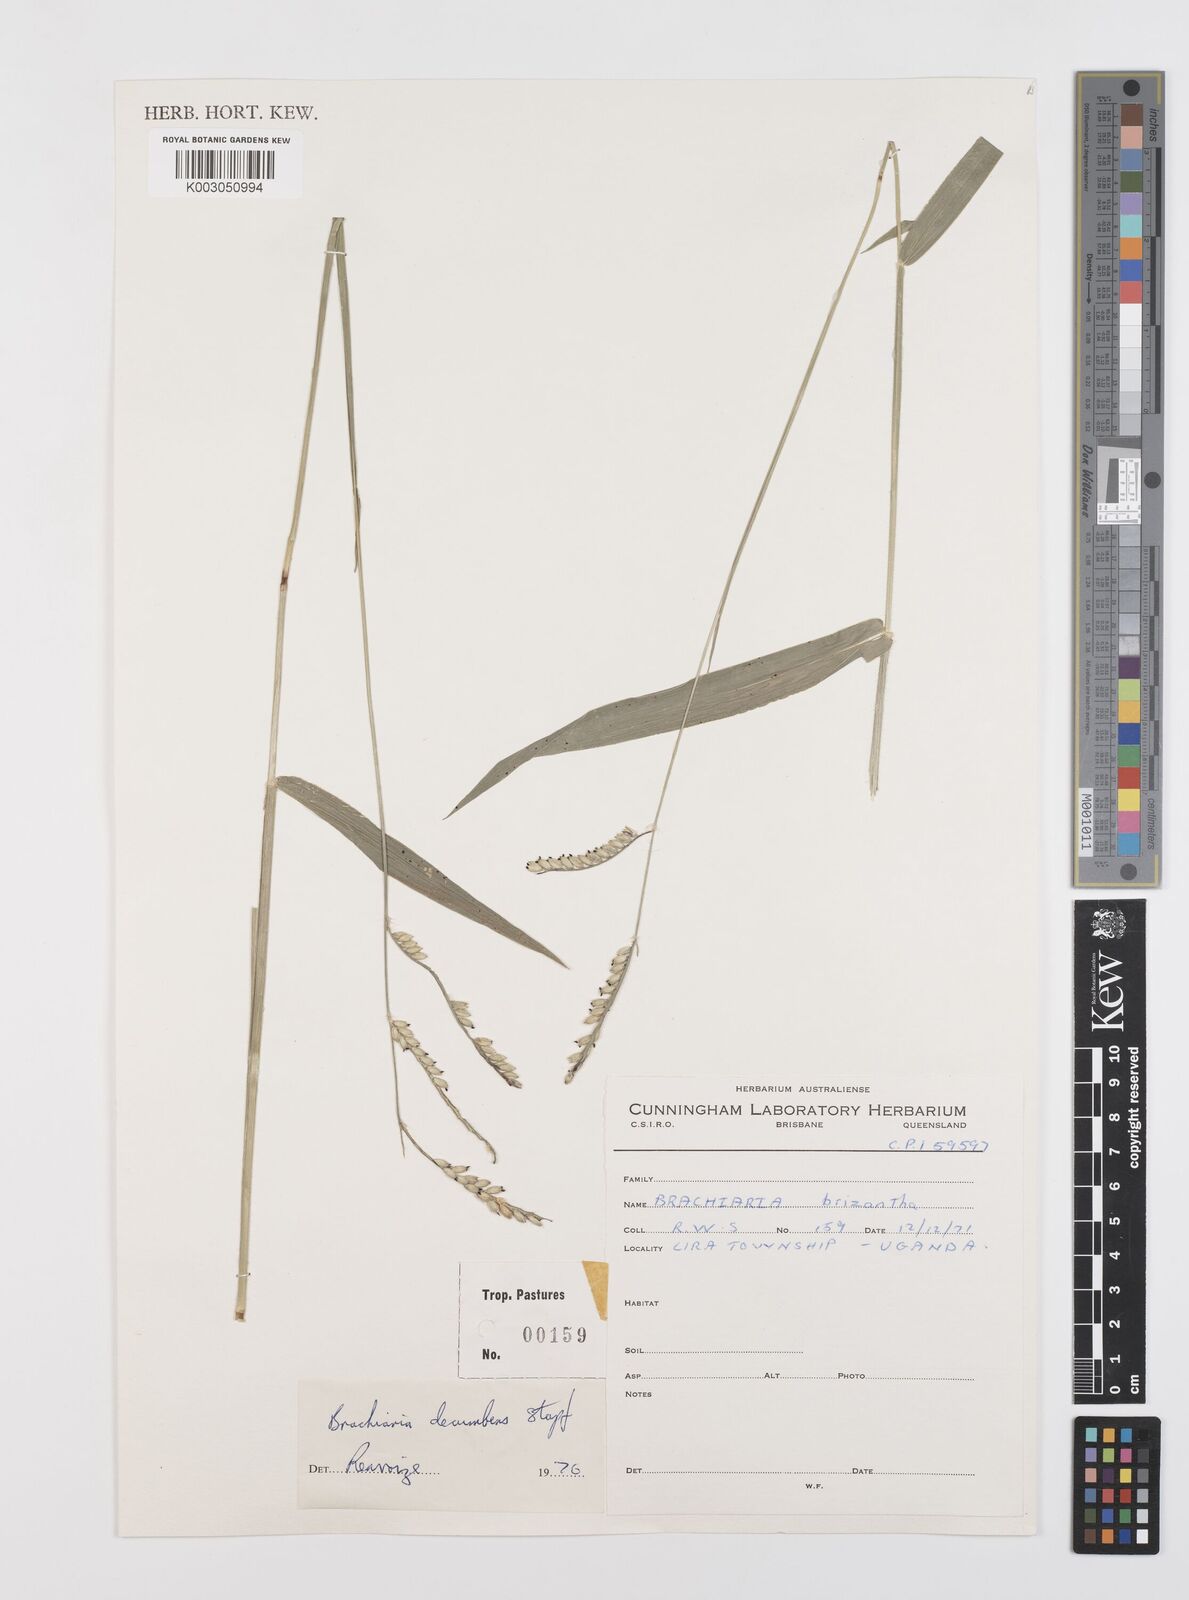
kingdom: Plantae
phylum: Tracheophyta
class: Liliopsida
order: Poales
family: Poaceae
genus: Urochloa
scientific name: Urochloa brizantha
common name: Palisade signalgrass
